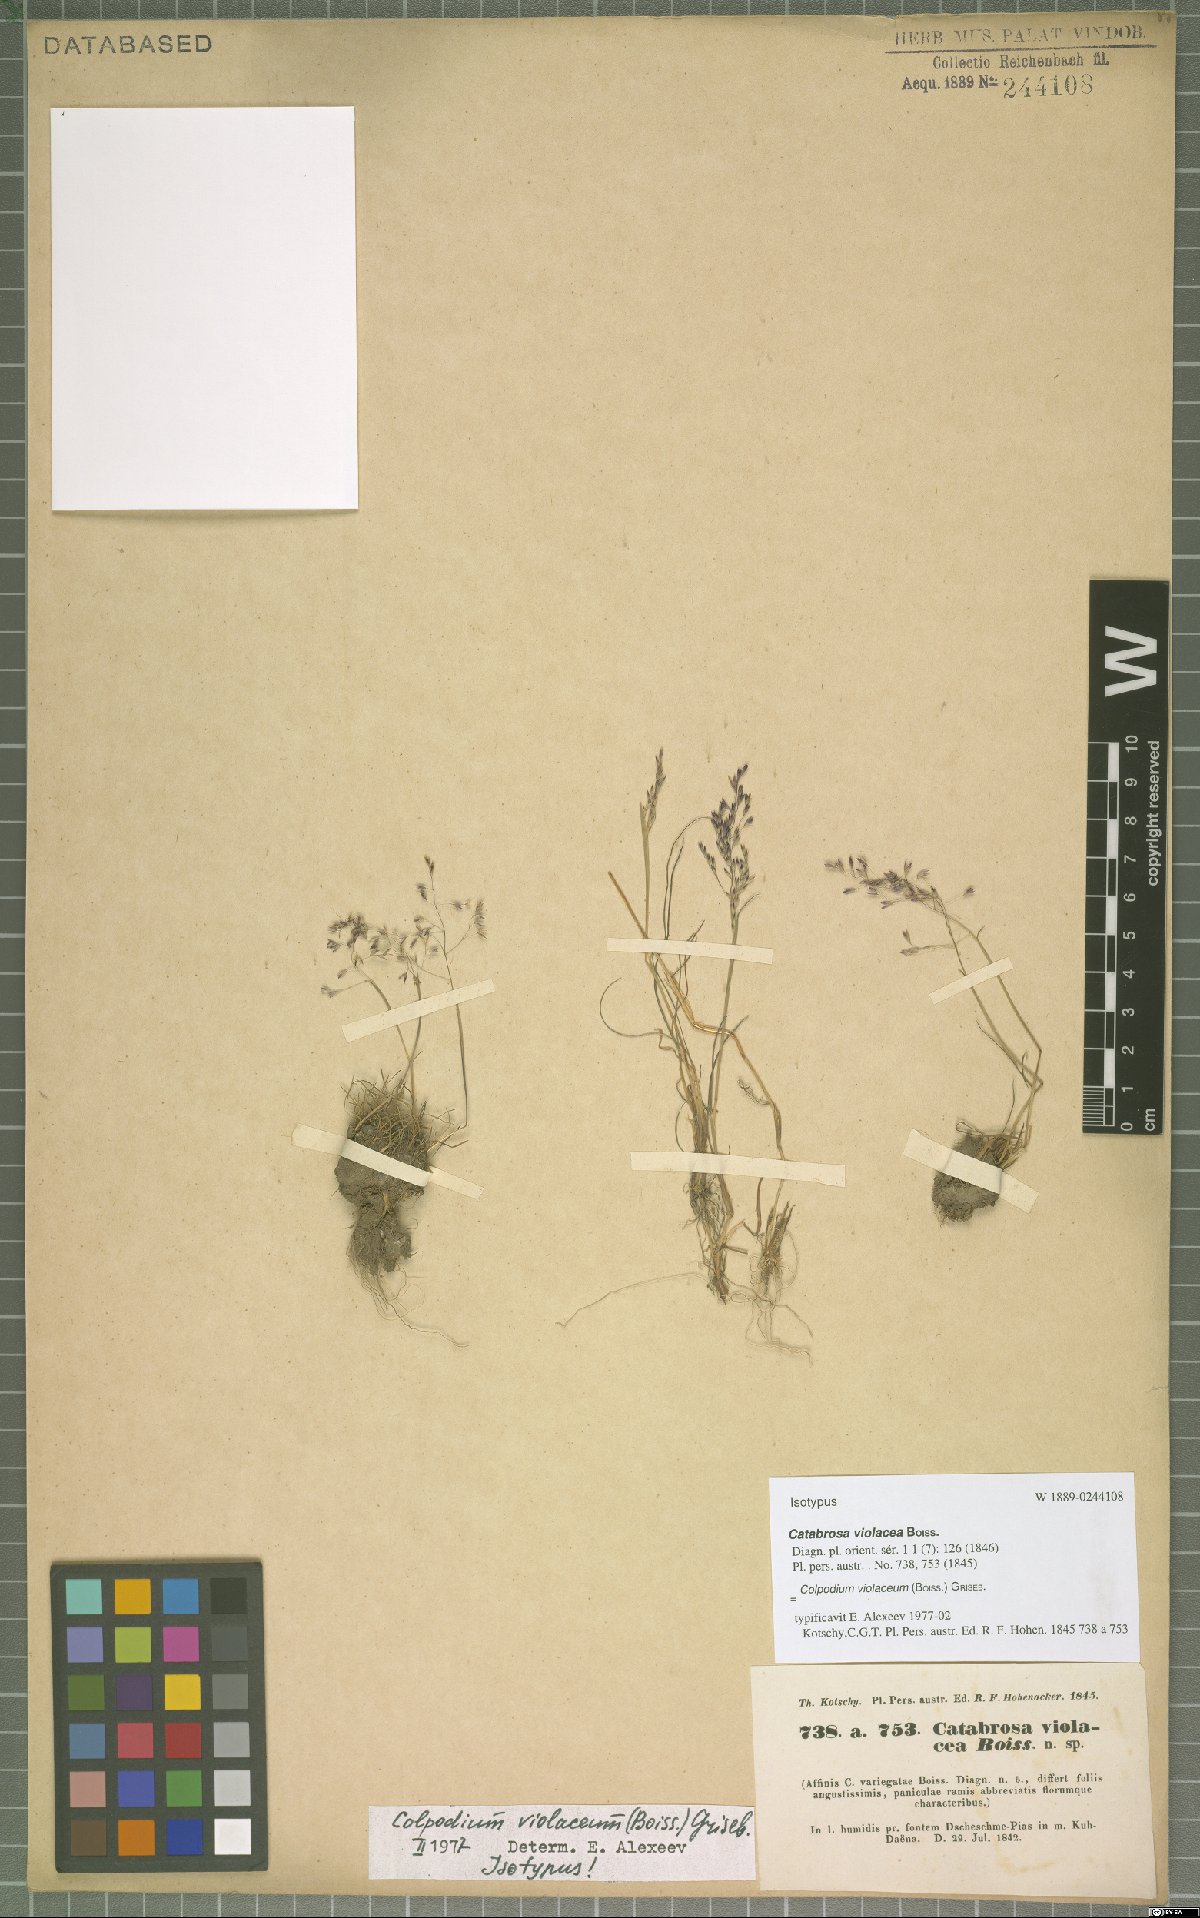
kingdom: Plantae
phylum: Tracheophyta
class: Liliopsida
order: Poales
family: Poaceae
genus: Catabrosella
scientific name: Catabrosella violacea
